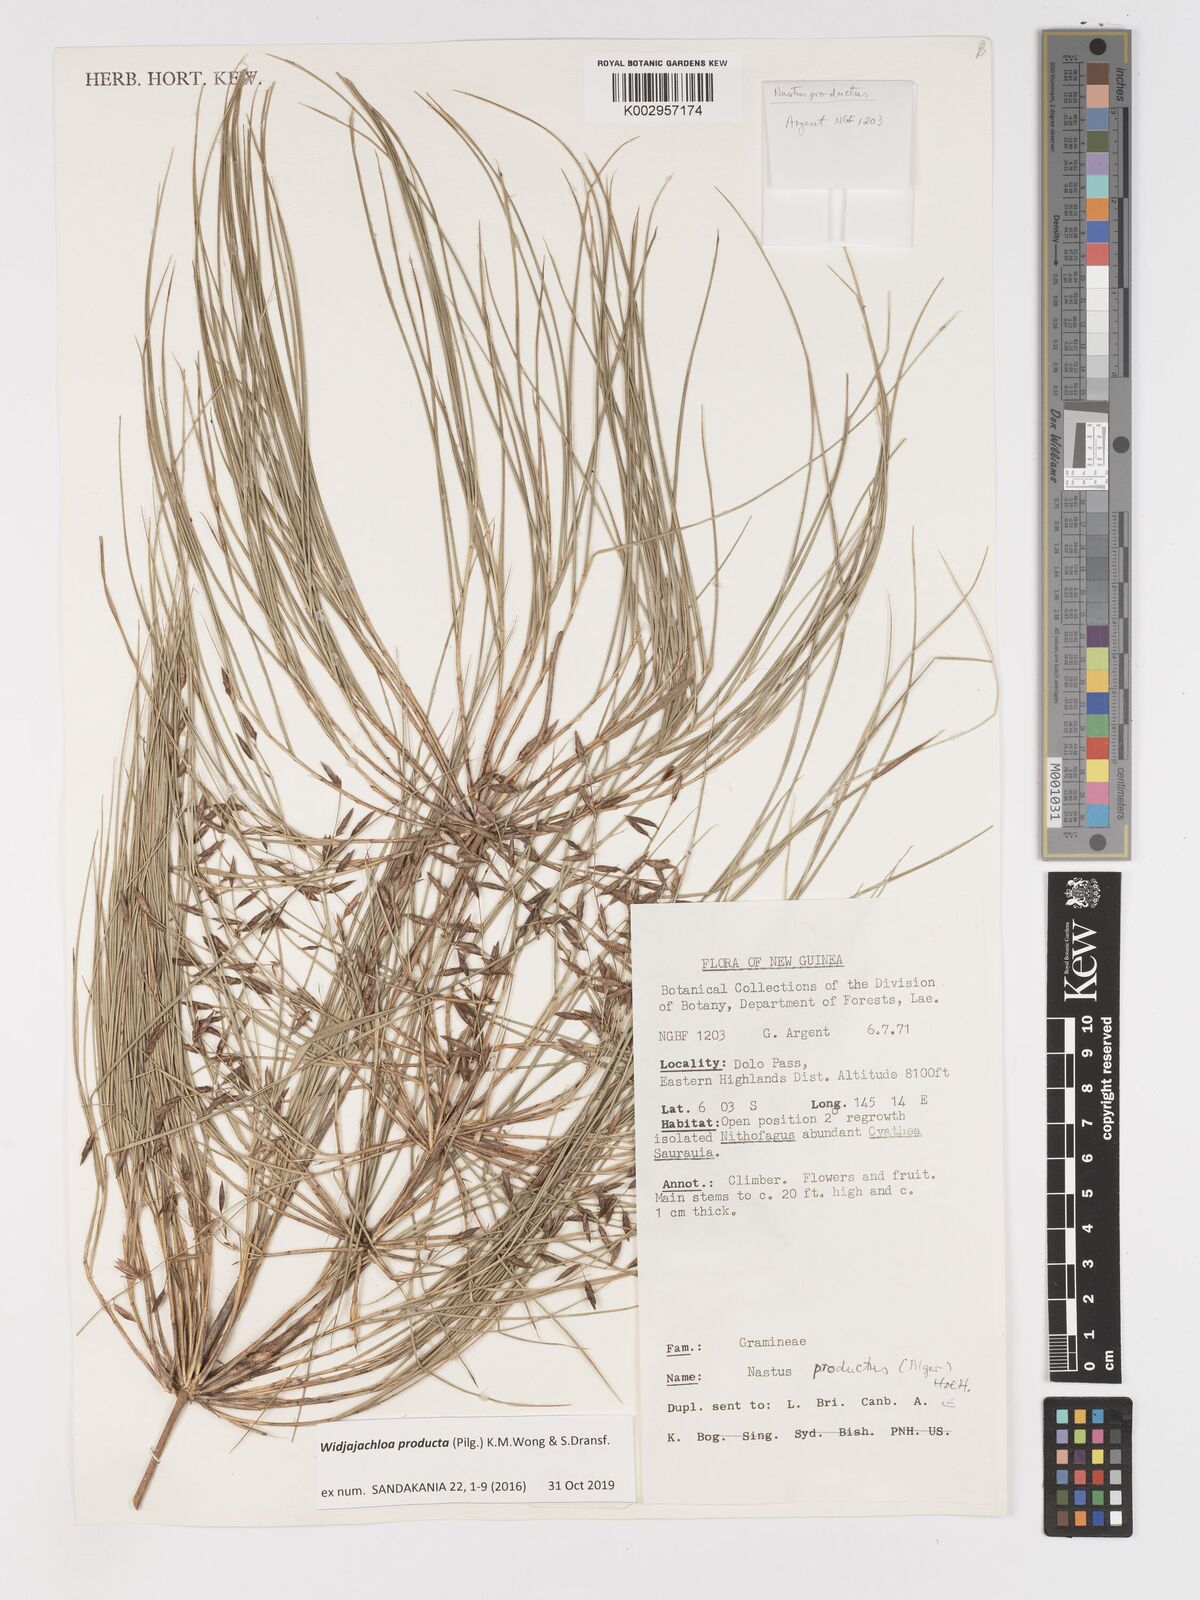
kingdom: Plantae
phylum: Tracheophyta
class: Liliopsida
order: Poales
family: Poaceae
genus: Widjajachloa
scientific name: Widjajachloa producta
